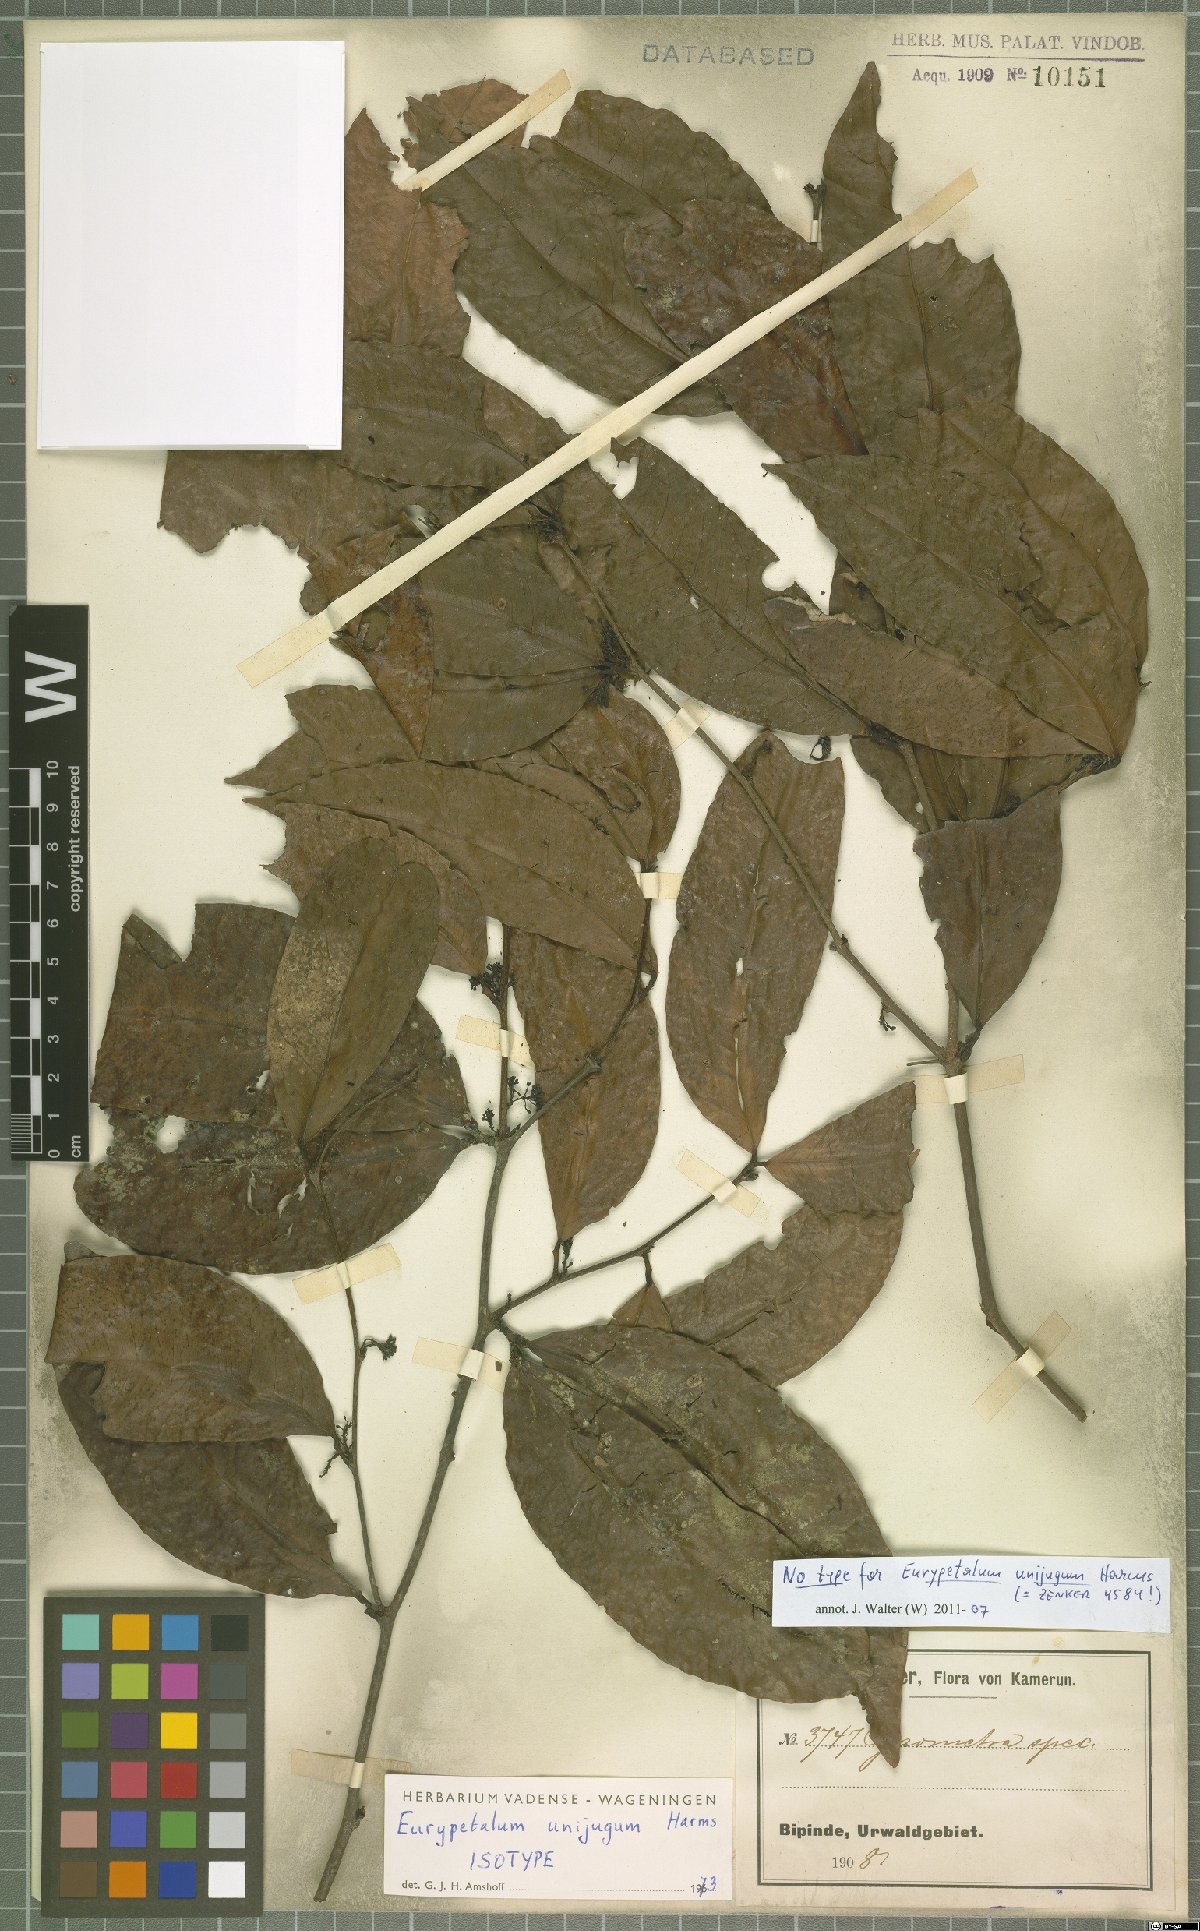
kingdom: Plantae
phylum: Tracheophyta
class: Magnoliopsida
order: Fabales
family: Fabaceae
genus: Eurypetalum
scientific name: Eurypetalum unijugum
